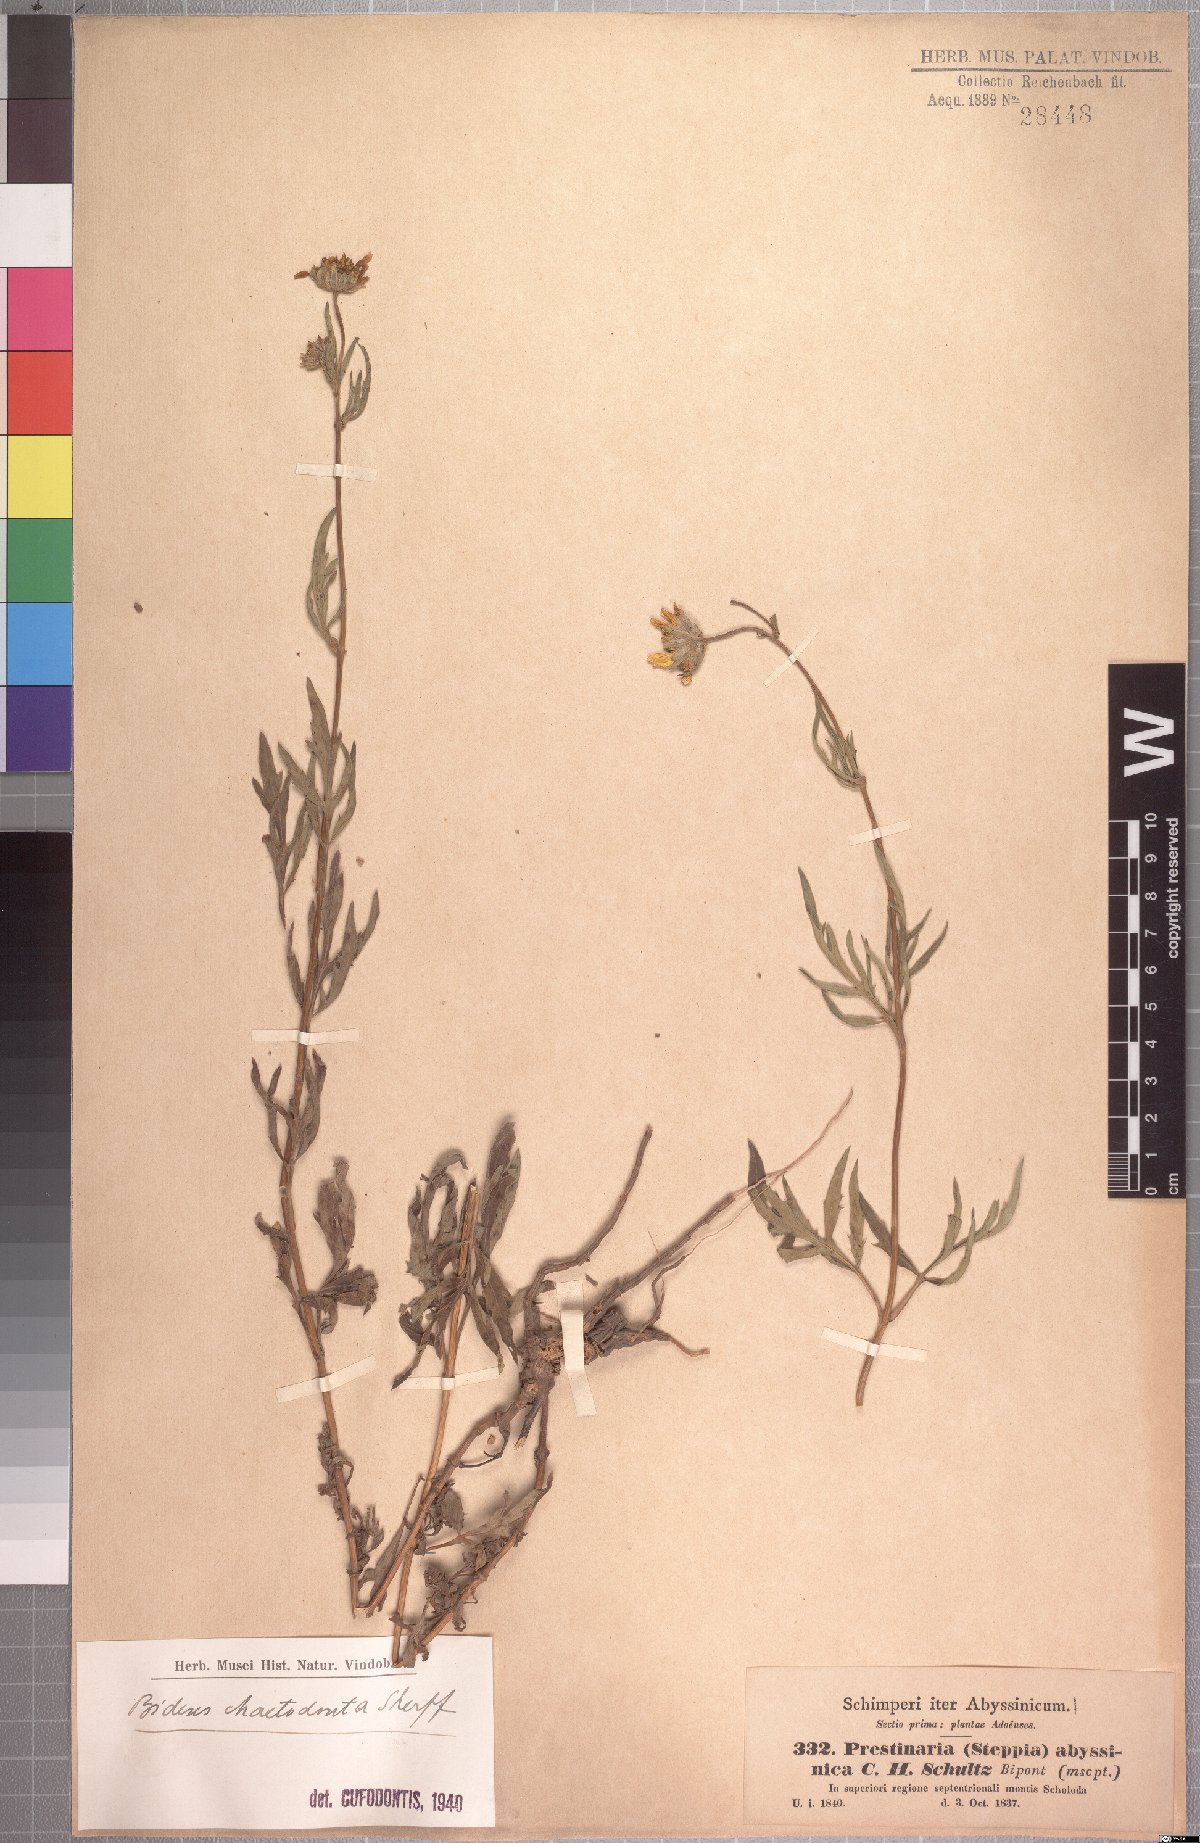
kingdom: Plantae
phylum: Tracheophyta
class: Magnoliopsida
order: Asterales
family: Asteraceae
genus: Bidens
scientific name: Bidens camporum
